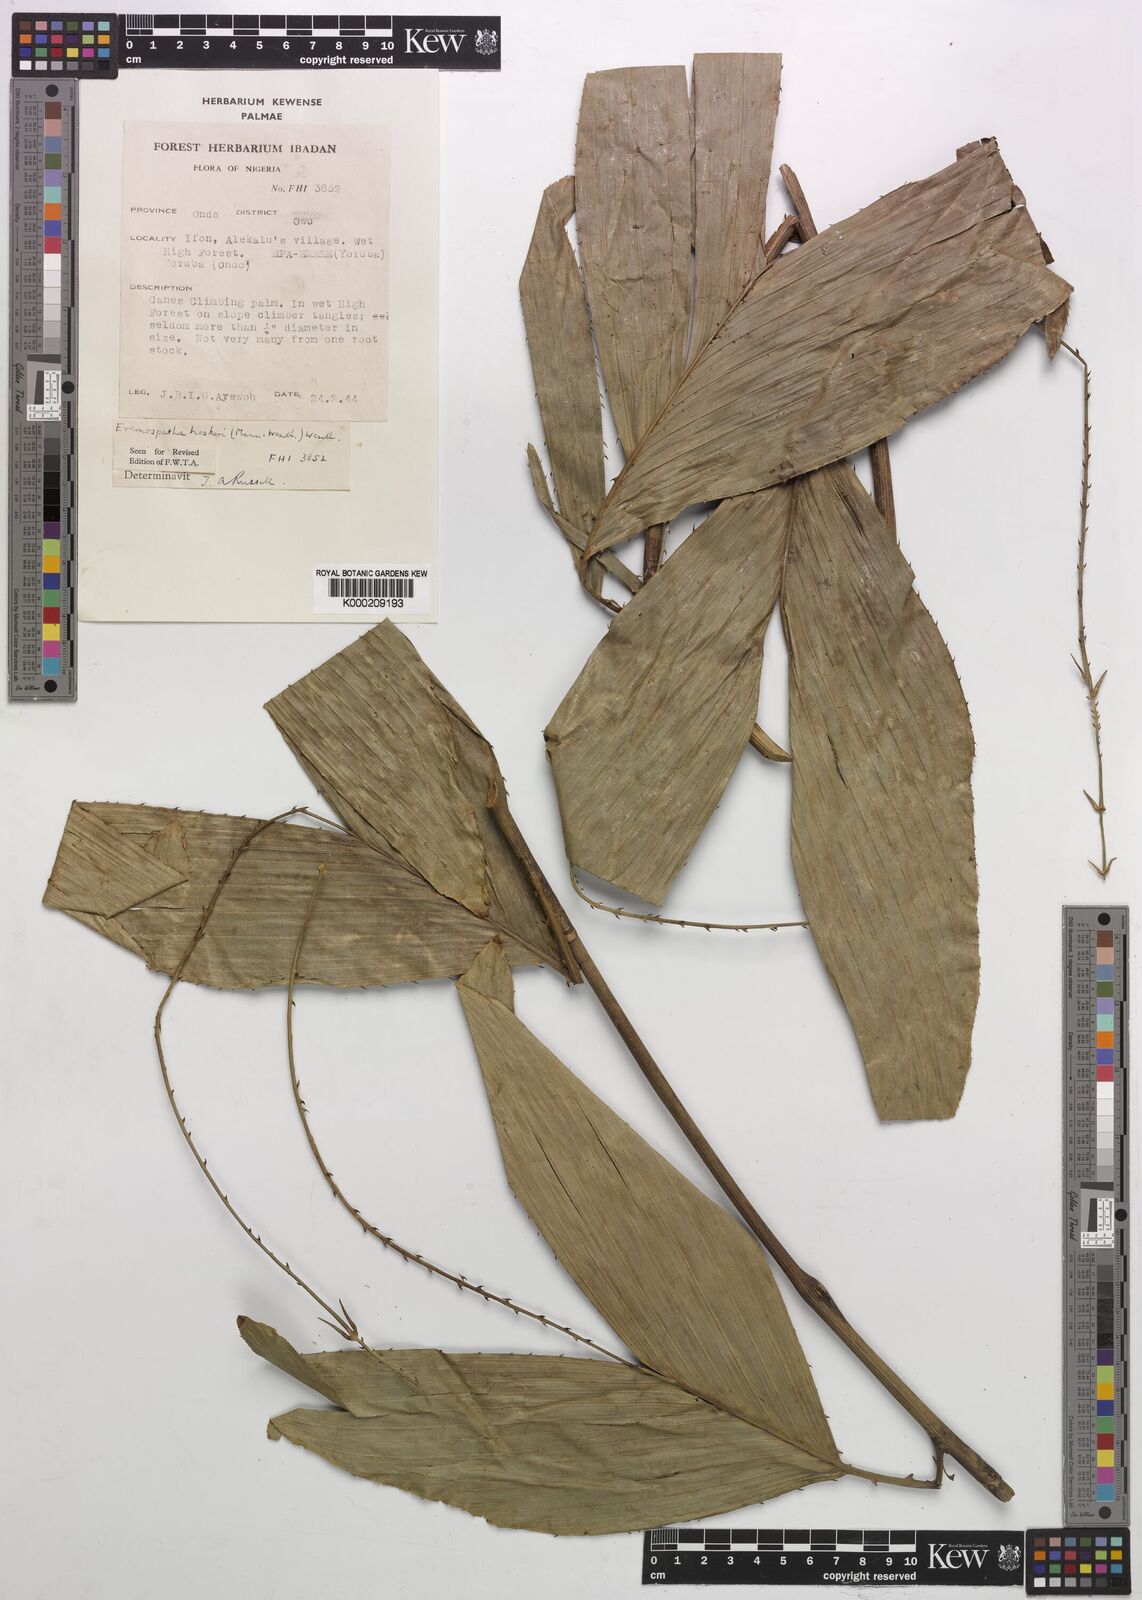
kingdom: Plantae
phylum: Tracheophyta
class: Liliopsida
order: Arecales
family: Arecaceae
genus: Eremospatha
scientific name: Eremospatha hookeri
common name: Rattan
